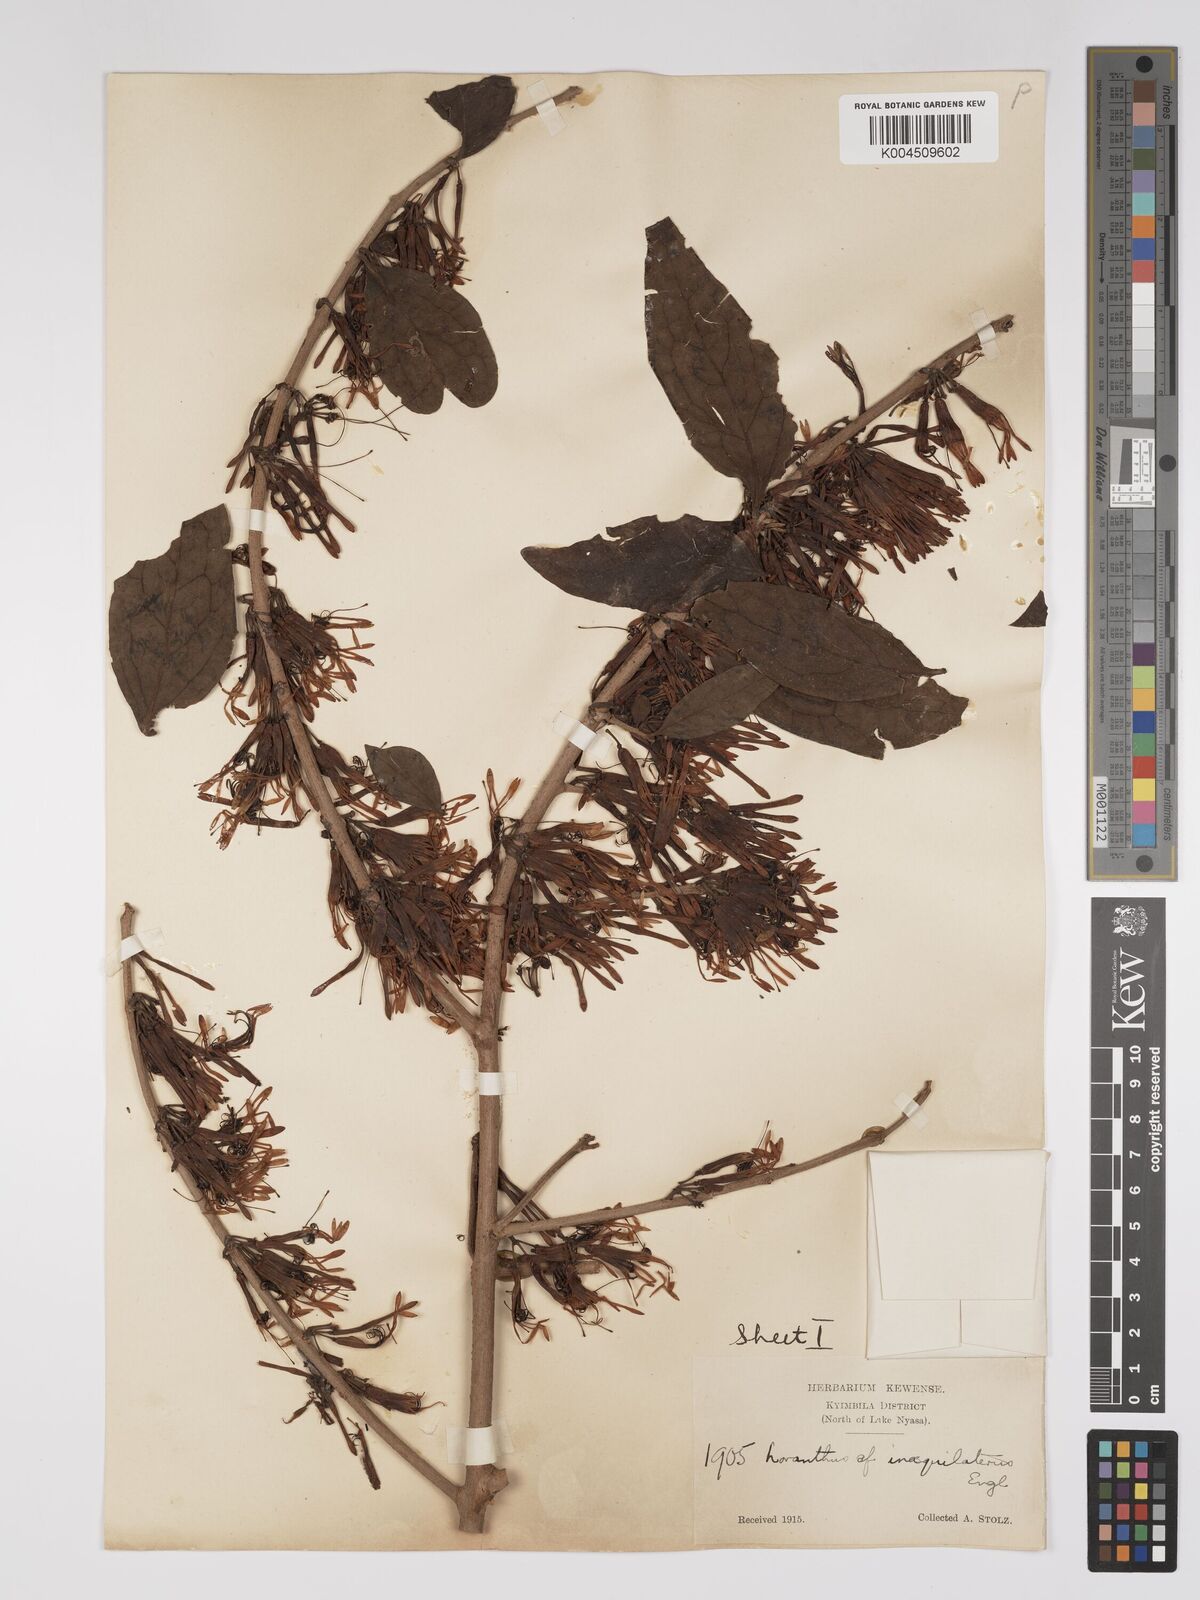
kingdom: Plantae
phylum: Tracheophyta
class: Magnoliopsida
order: Santalales
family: Loranthaceae
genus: Englerina
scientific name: Englerina inaequilatera
